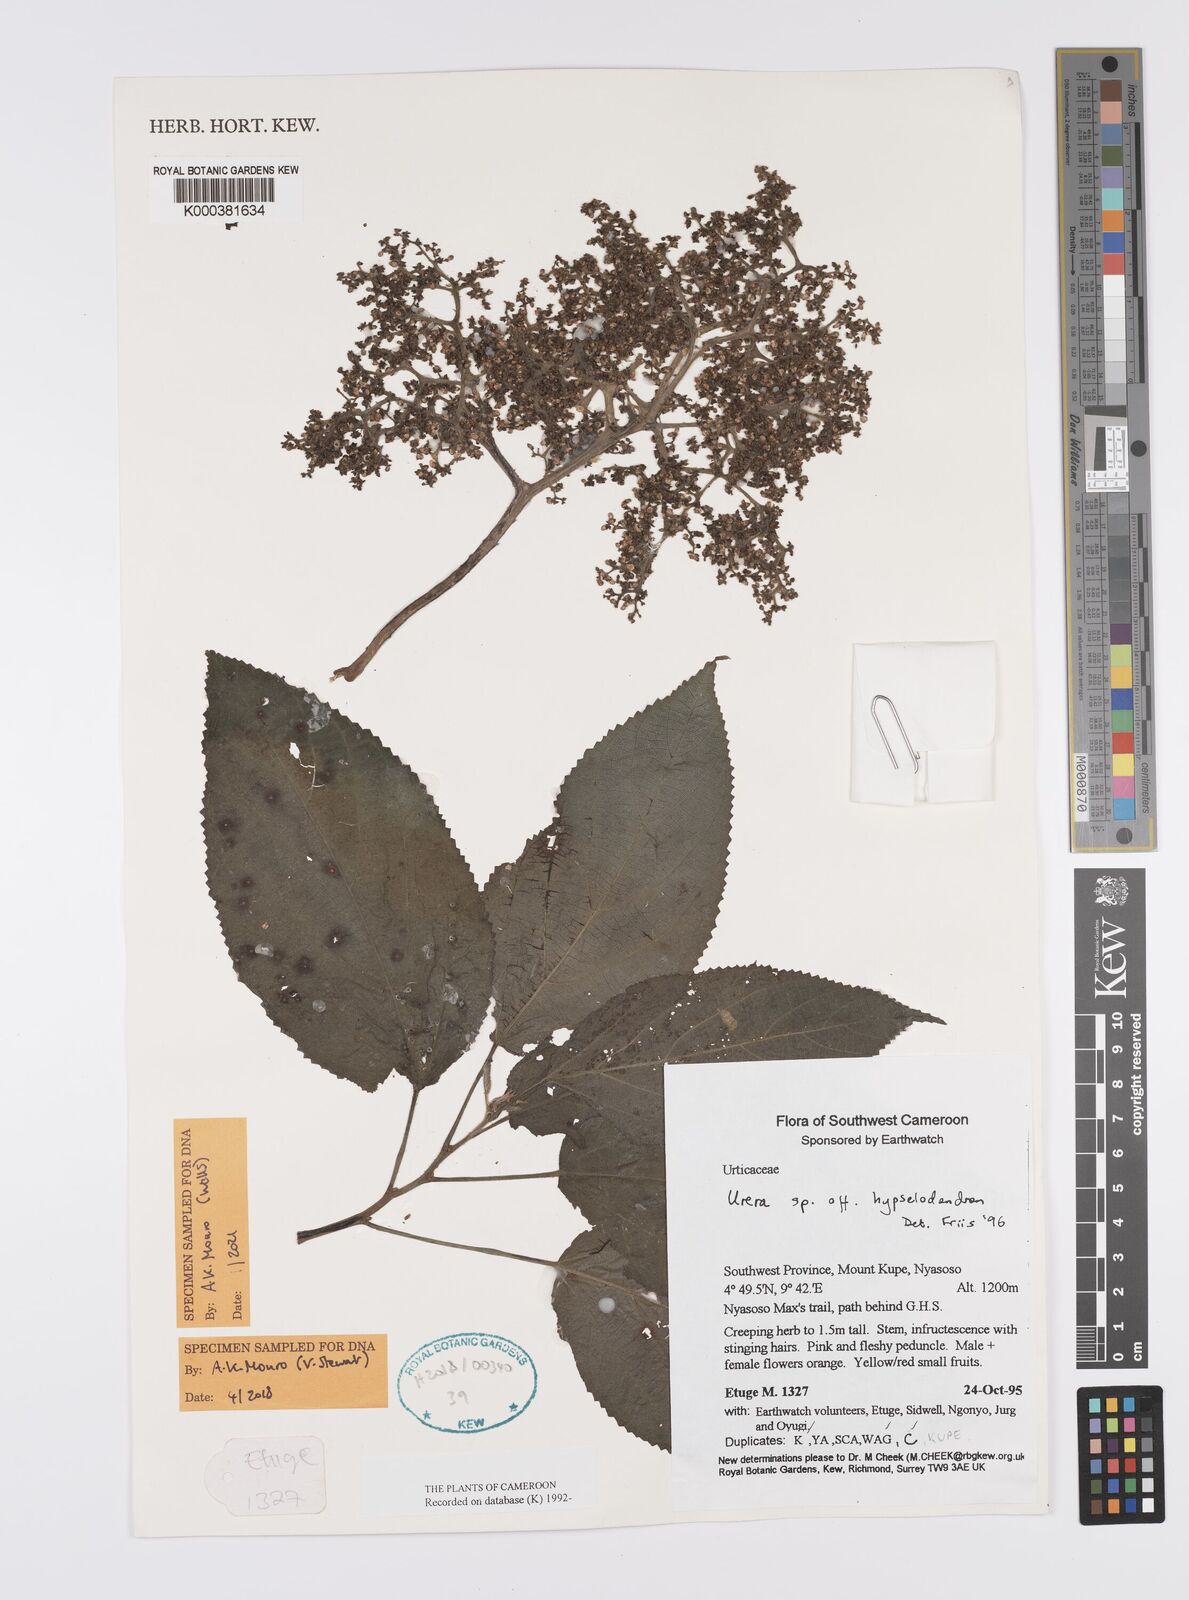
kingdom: Plantae
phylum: Tracheophyta
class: Magnoliopsida
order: Rosales
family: Urticaceae
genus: Scepocarpus
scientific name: Scepocarpus hypselodendron
